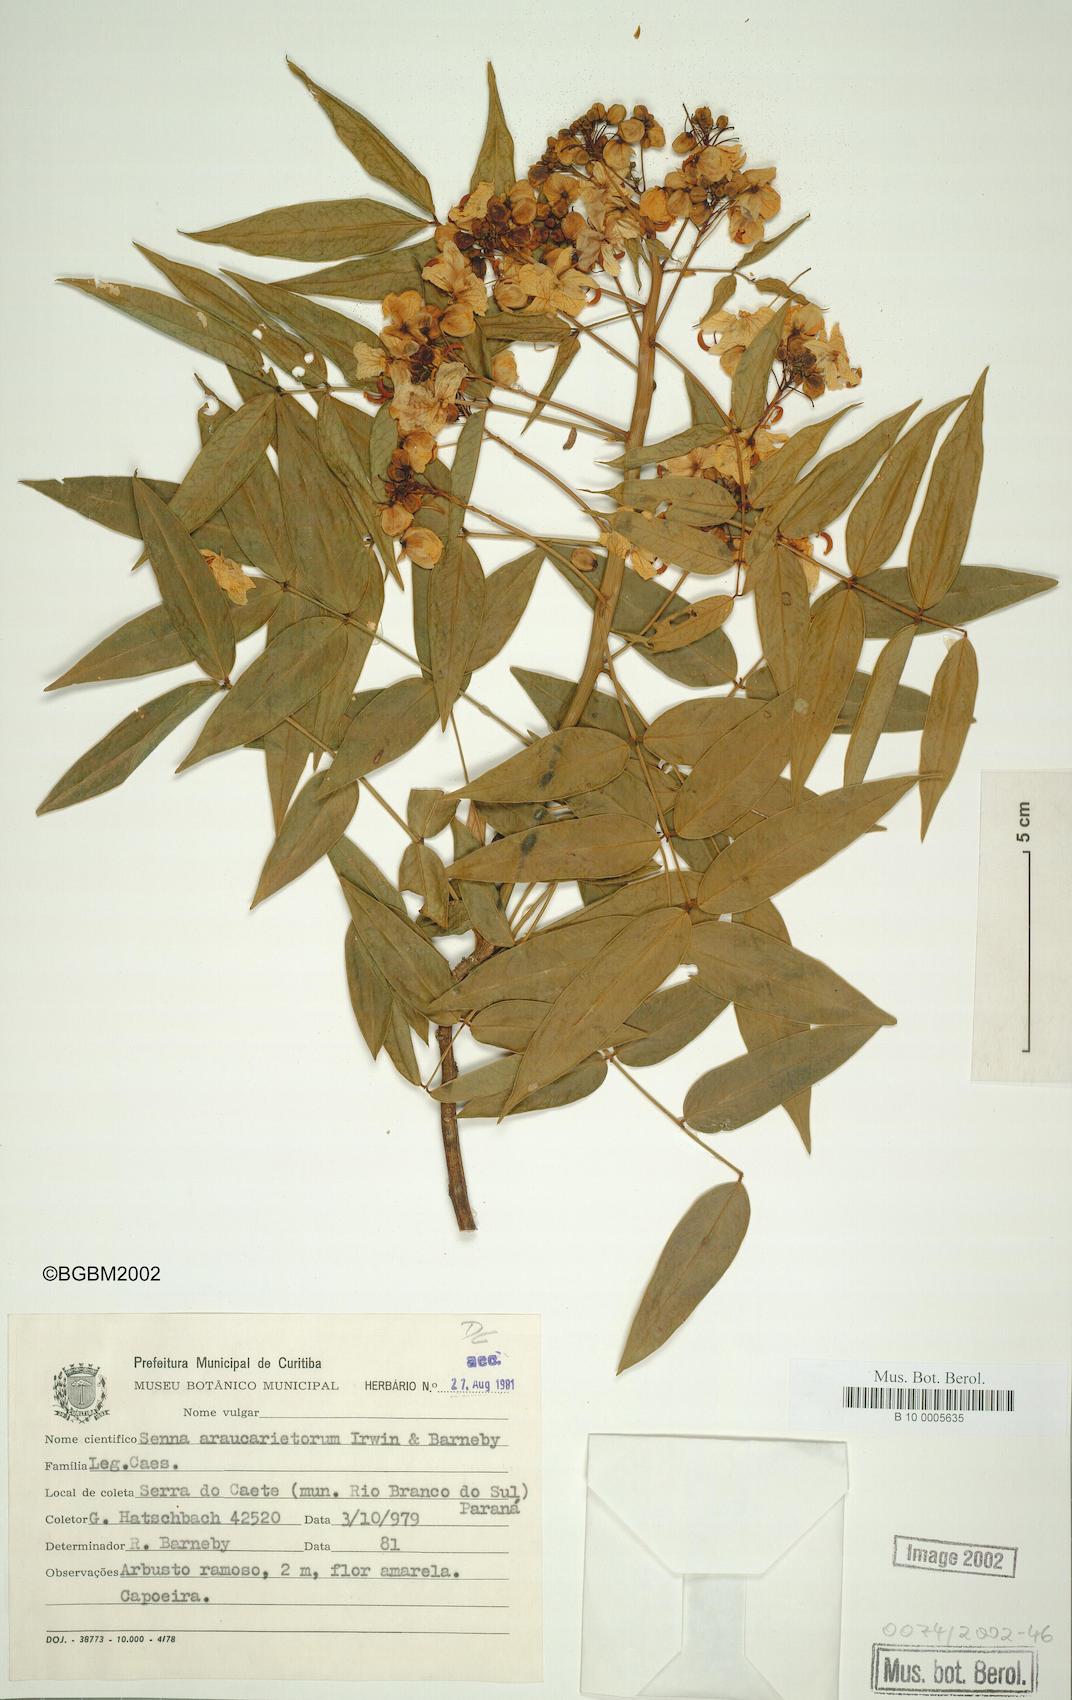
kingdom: Plantae
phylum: Tracheophyta
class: Magnoliopsida
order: Fabales
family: Fabaceae
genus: Senna
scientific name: Senna araucarietorum
